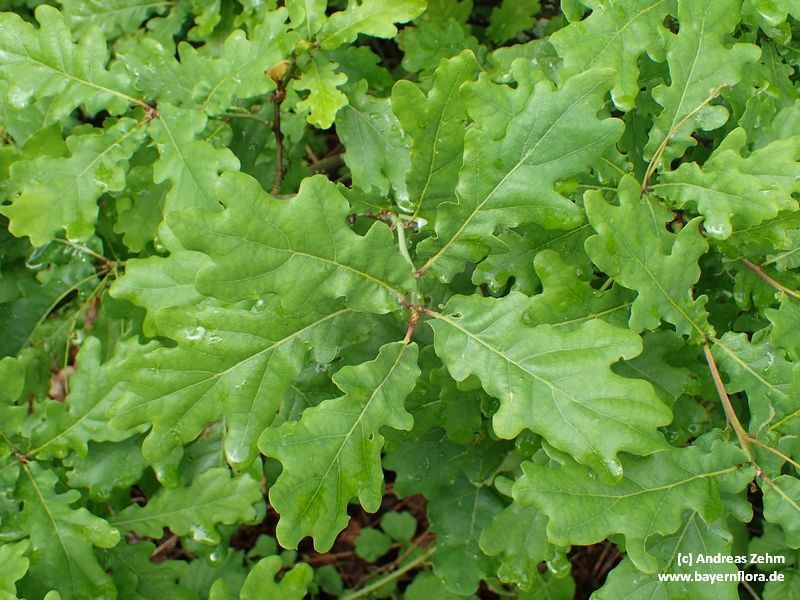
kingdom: Plantae
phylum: Tracheophyta
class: Magnoliopsida
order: Fagales
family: Fagaceae
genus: Quercus
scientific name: Quercus robur
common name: Pedunculate oak
